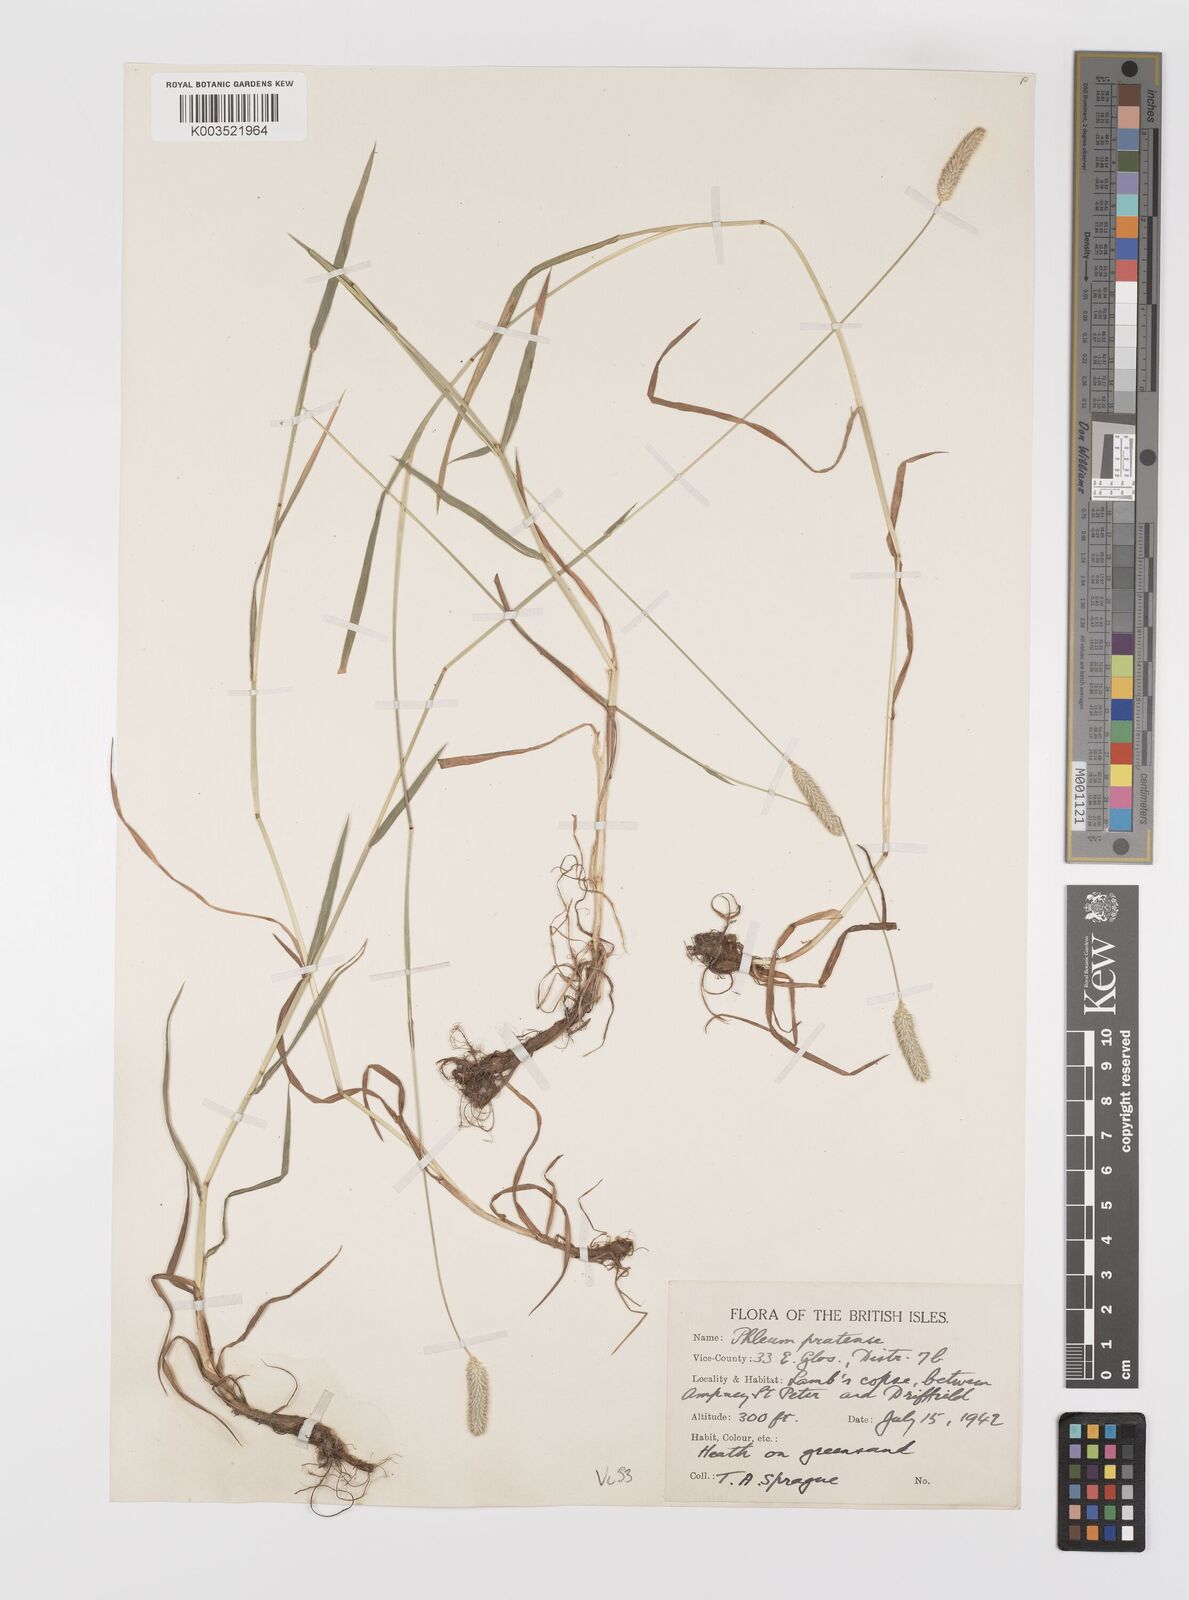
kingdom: Plantae
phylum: Tracheophyta
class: Liliopsida
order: Poales
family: Poaceae
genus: Phleum
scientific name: Phleum bertolonii
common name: Smaller cat's-tail
